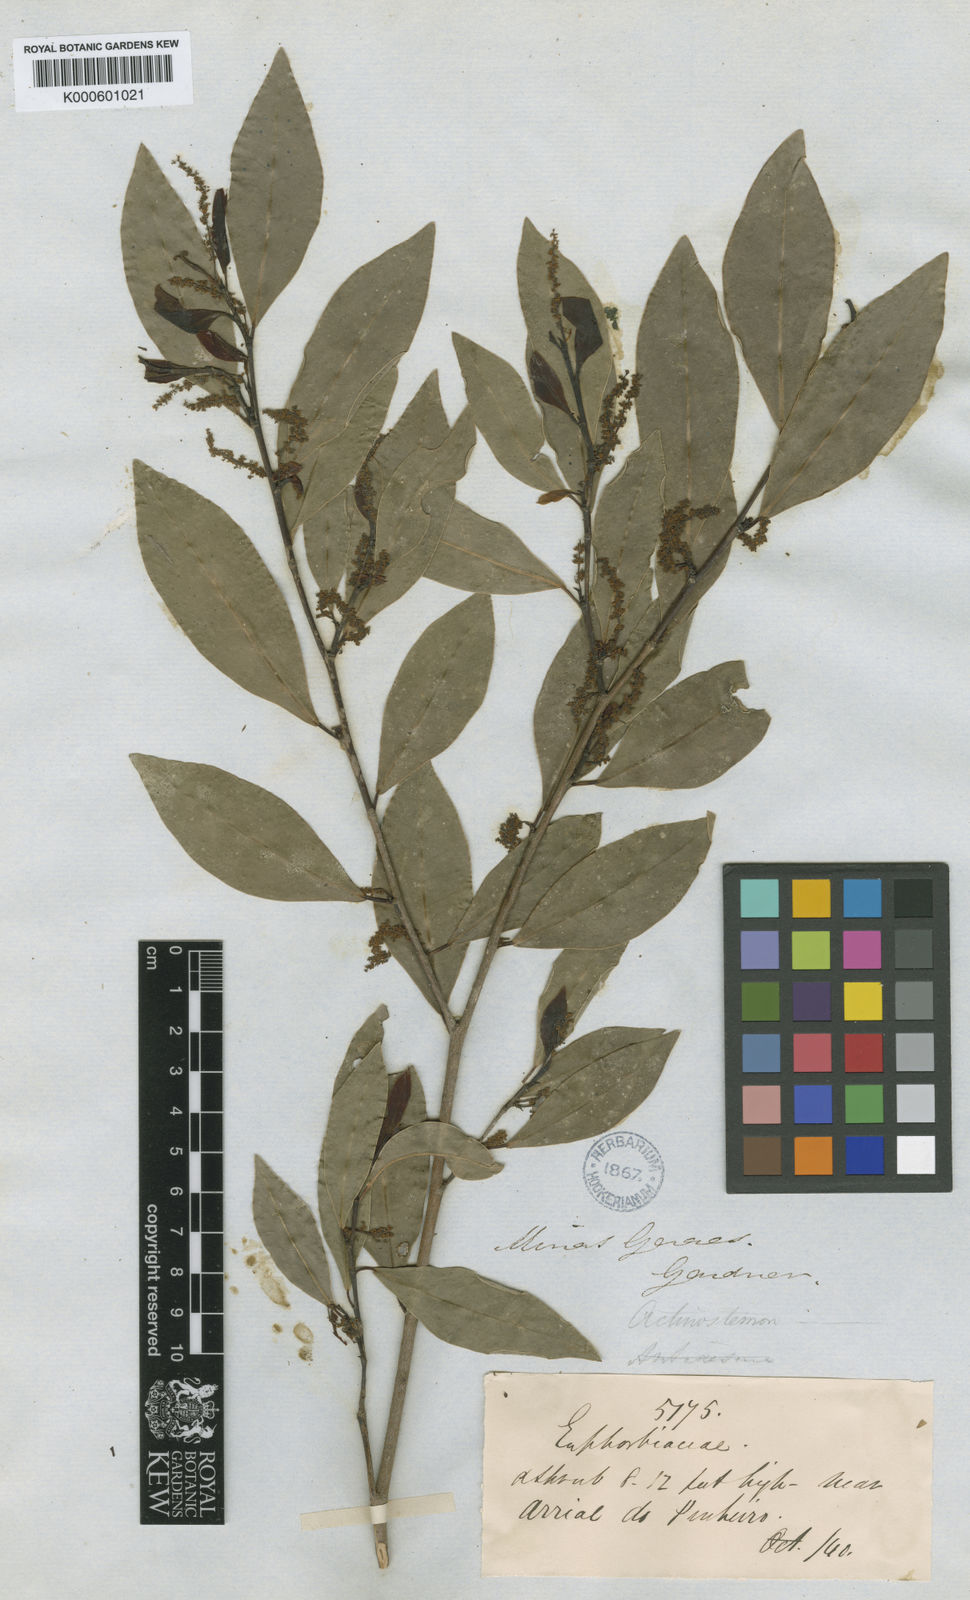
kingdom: Plantae
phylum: Tracheophyta
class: Magnoliopsida
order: Malpighiales
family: Euphorbiaceae
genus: Actinostemon
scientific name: Actinostemon concolor
